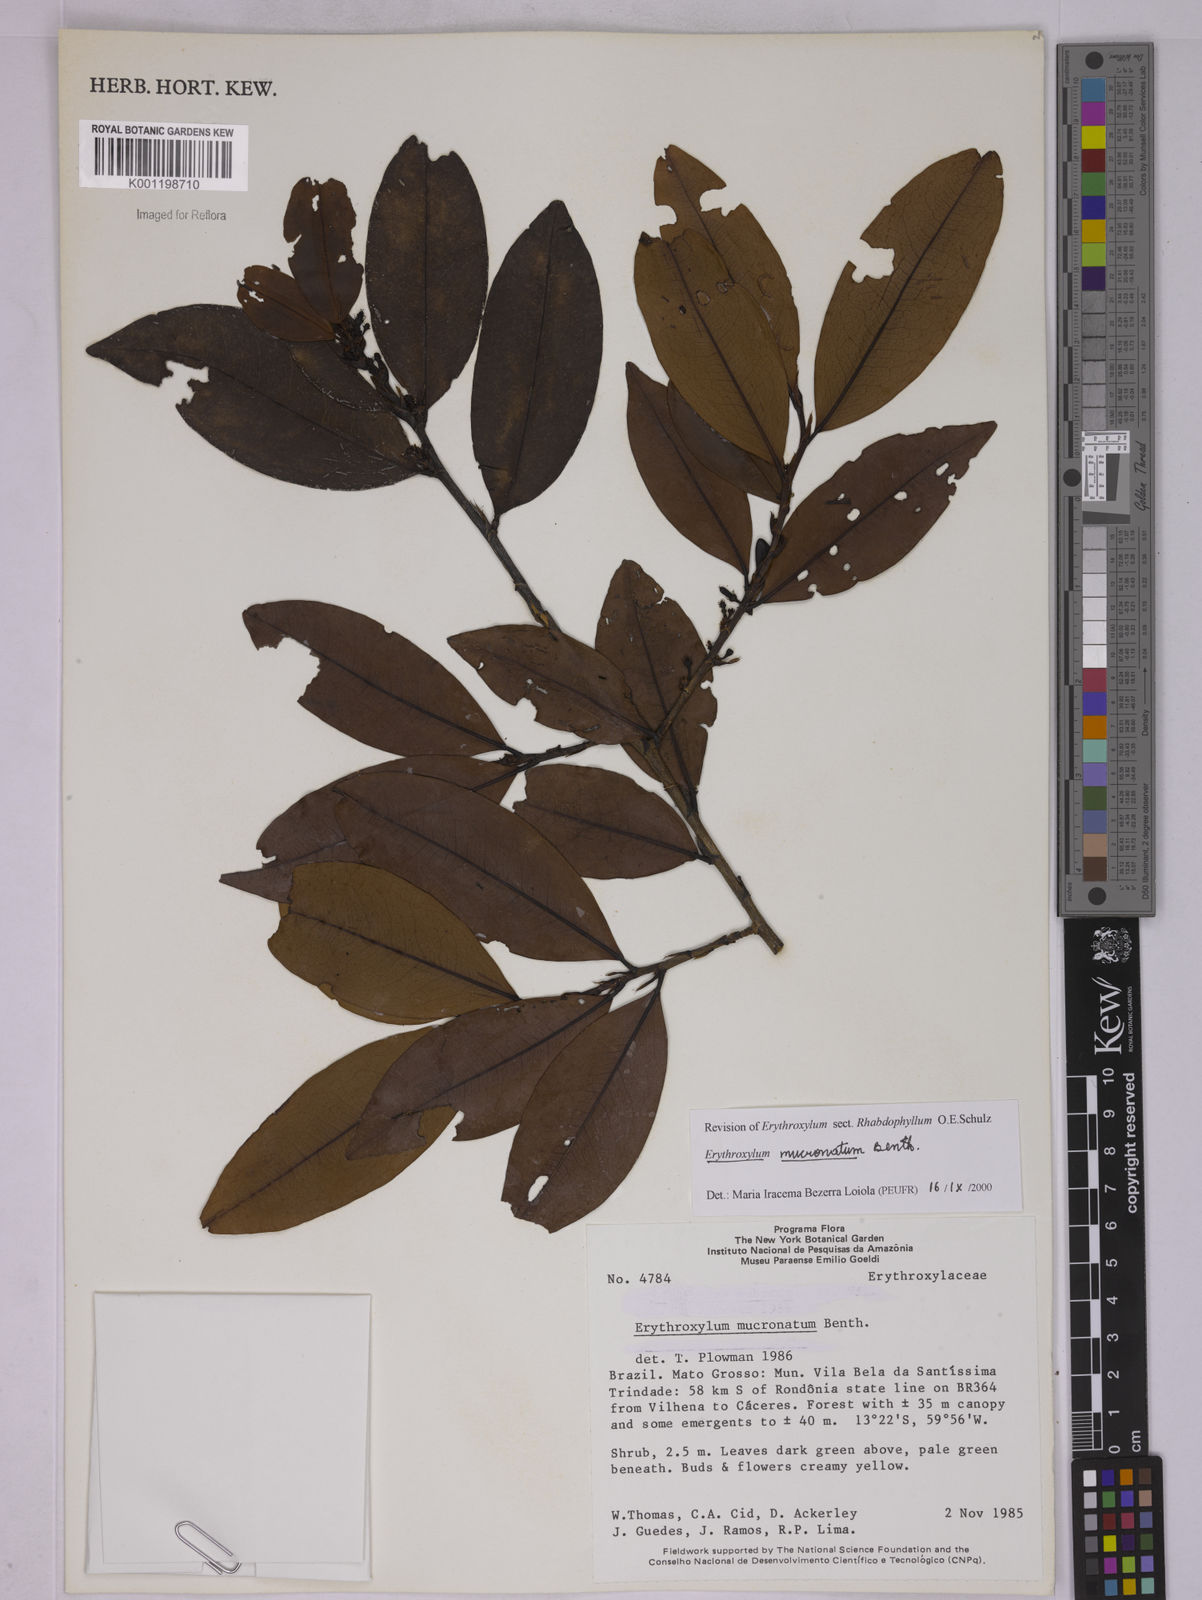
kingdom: Plantae
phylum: Tracheophyta
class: Magnoliopsida
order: Malpighiales
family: Erythroxylaceae
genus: Erythroxylum
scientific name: Erythroxylum mucronatum
